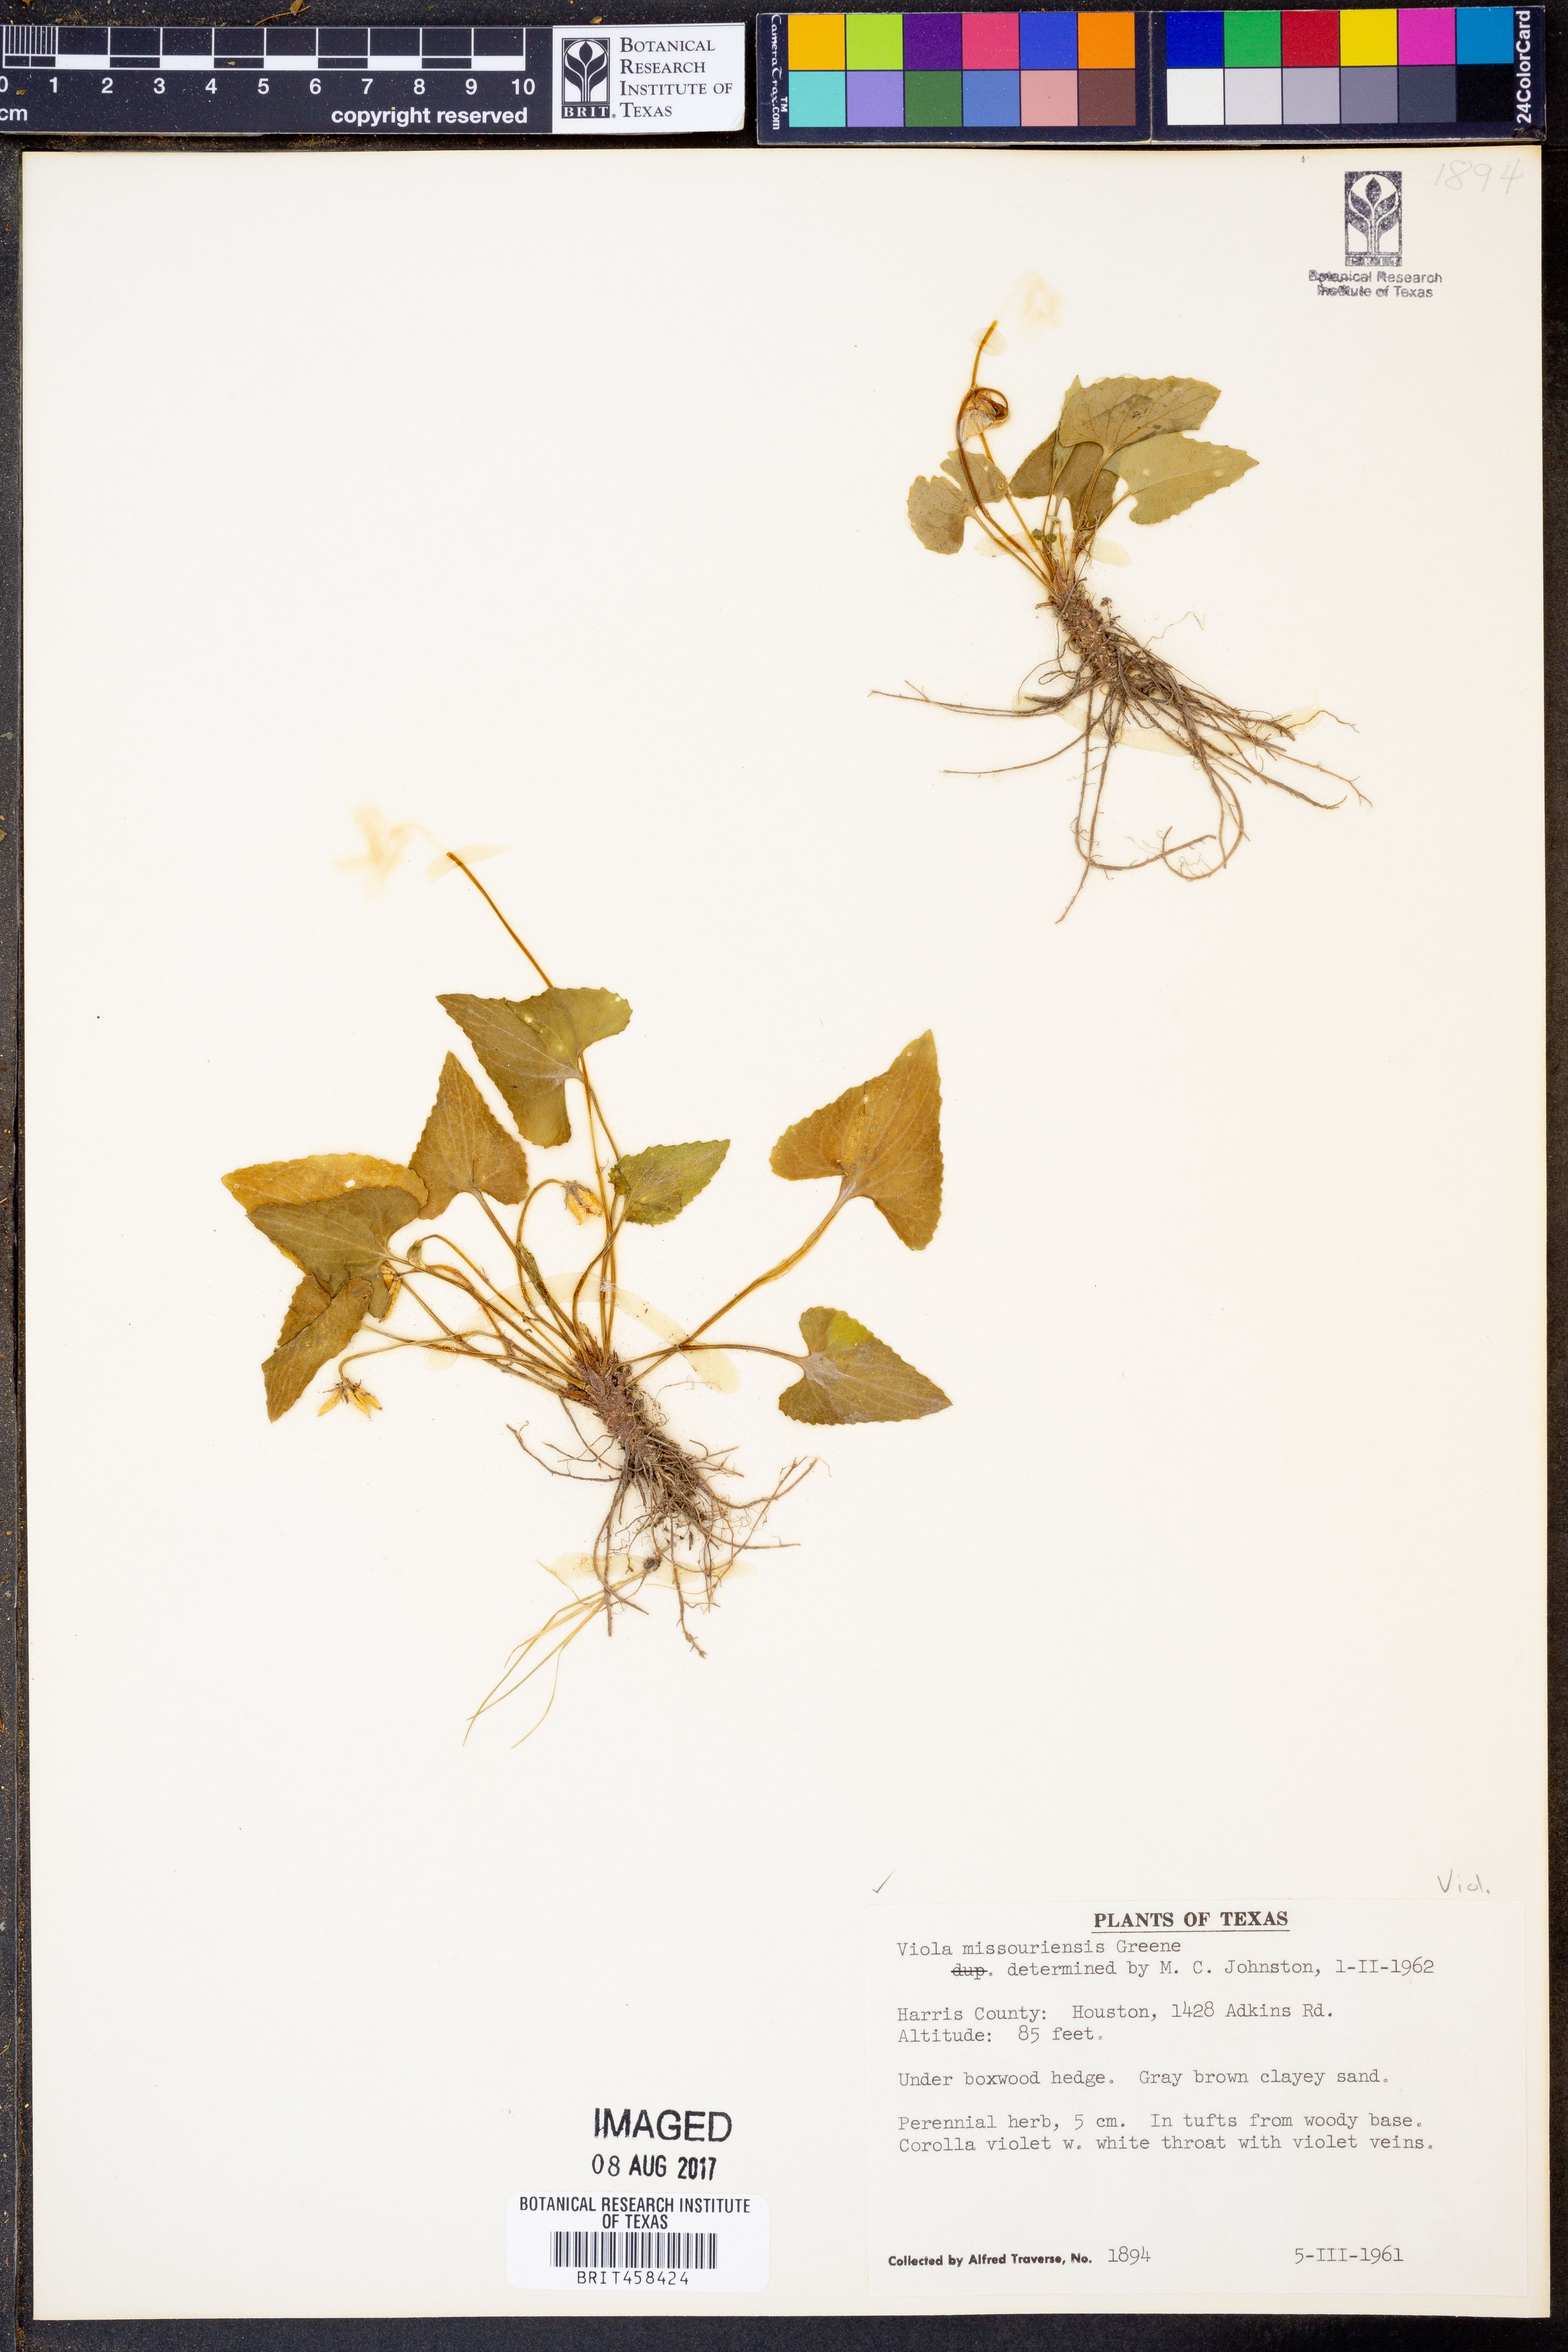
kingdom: Plantae
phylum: Tracheophyta
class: Magnoliopsida
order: Malpighiales
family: Violaceae
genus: Viola
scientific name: Viola missouriensis
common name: Missouri violet
